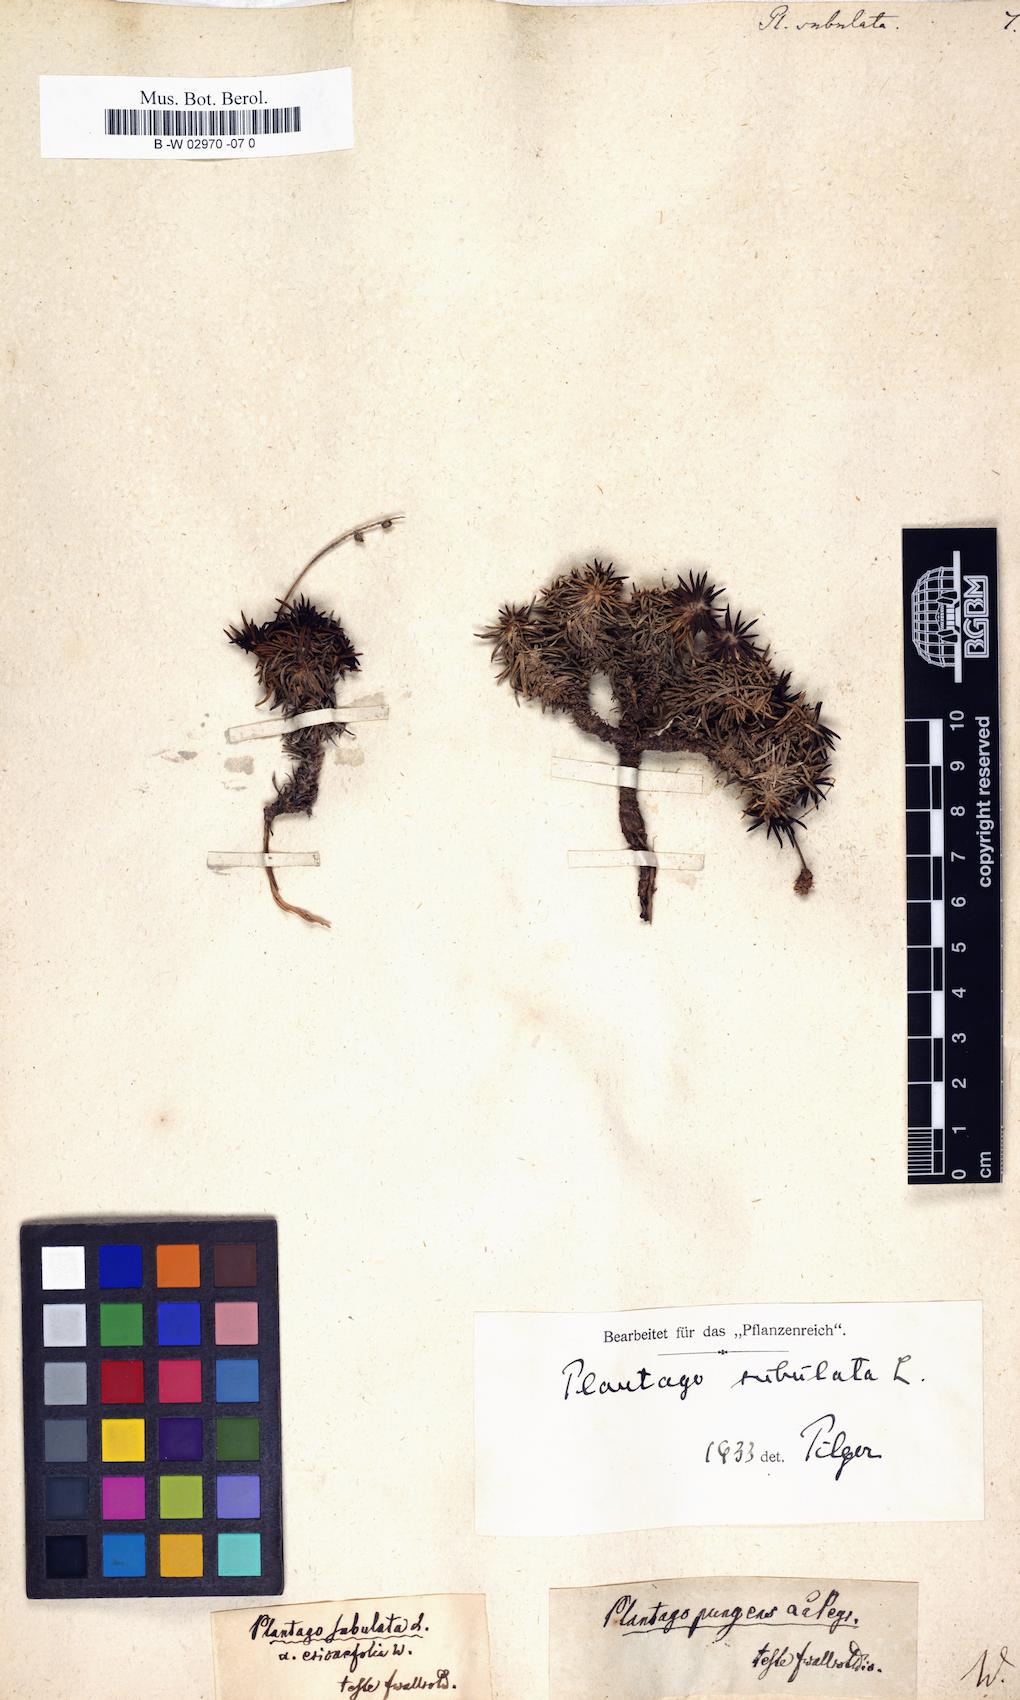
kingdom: Plantae
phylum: Tracheophyta
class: Magnoliopsida
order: Lamiales
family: Plantaginaceae
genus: Plantago
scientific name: Plantago subulata
